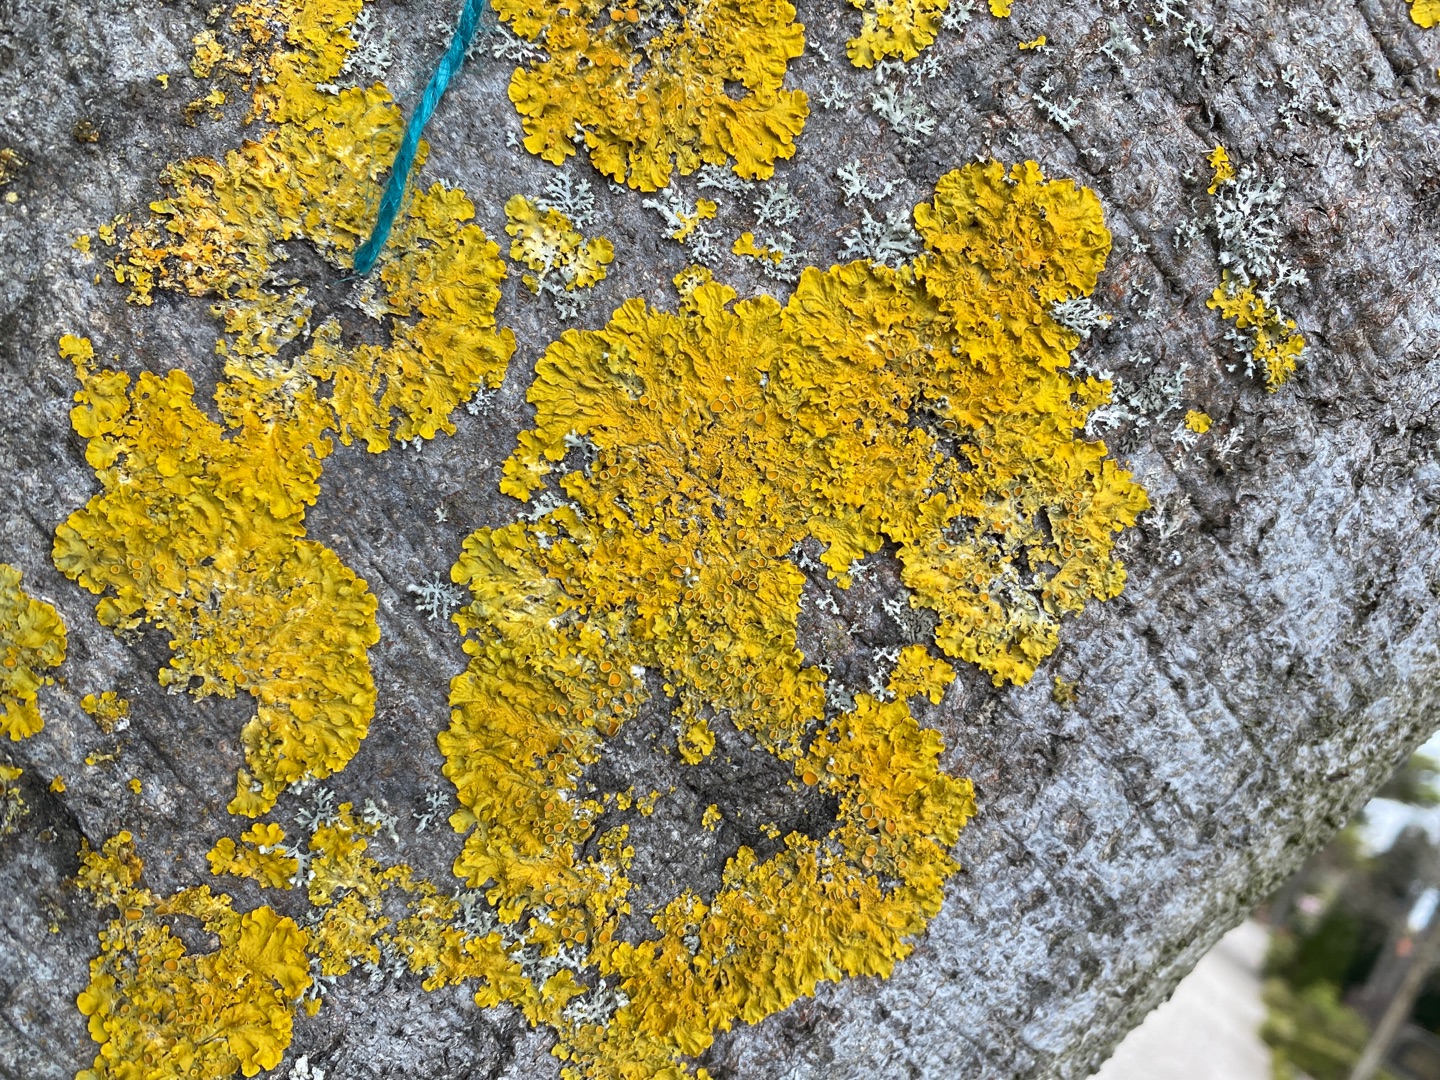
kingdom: Fungi
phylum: Ascomycota
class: Lecanoromycetes
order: Teloschistales
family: Teloschistaceae
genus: Xanthoria
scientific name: Xanthoria parietina
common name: Almindelig væggelav
